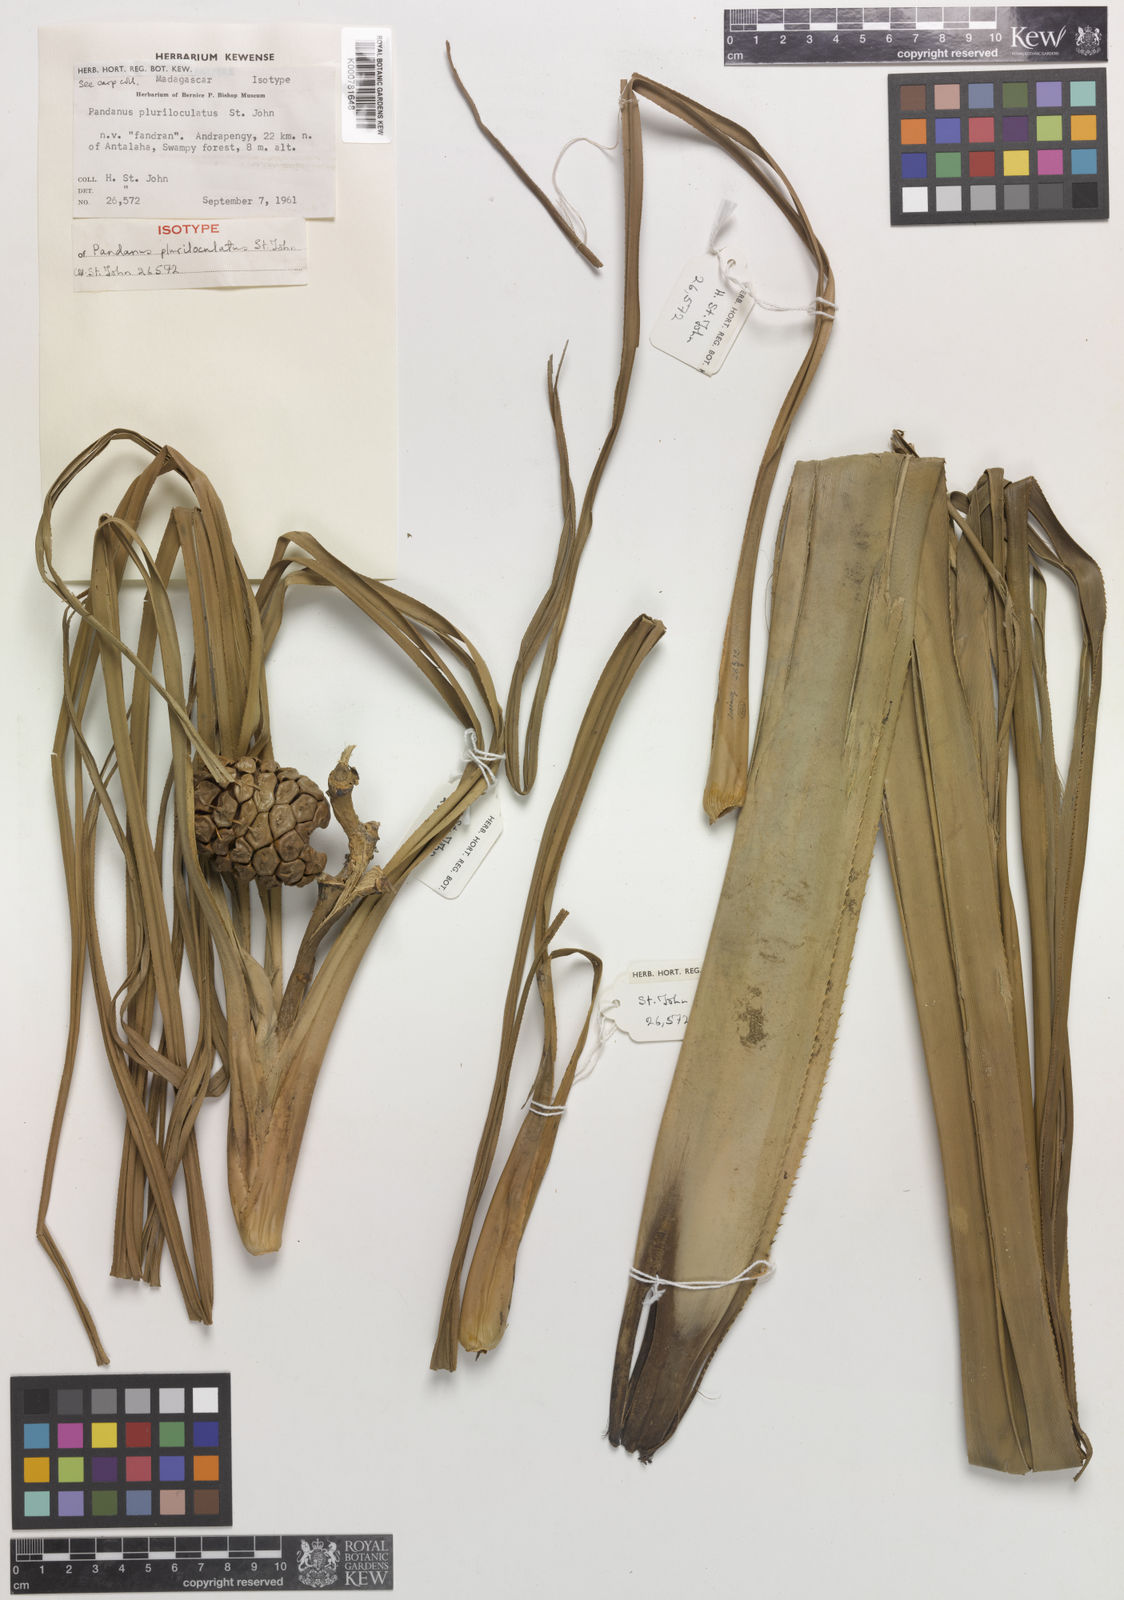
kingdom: Plantae
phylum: Tracheophyta
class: Liliopsida
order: Pandanales
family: Pandanaceae
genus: Pandanus
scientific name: Pandanus pluriloculatus
